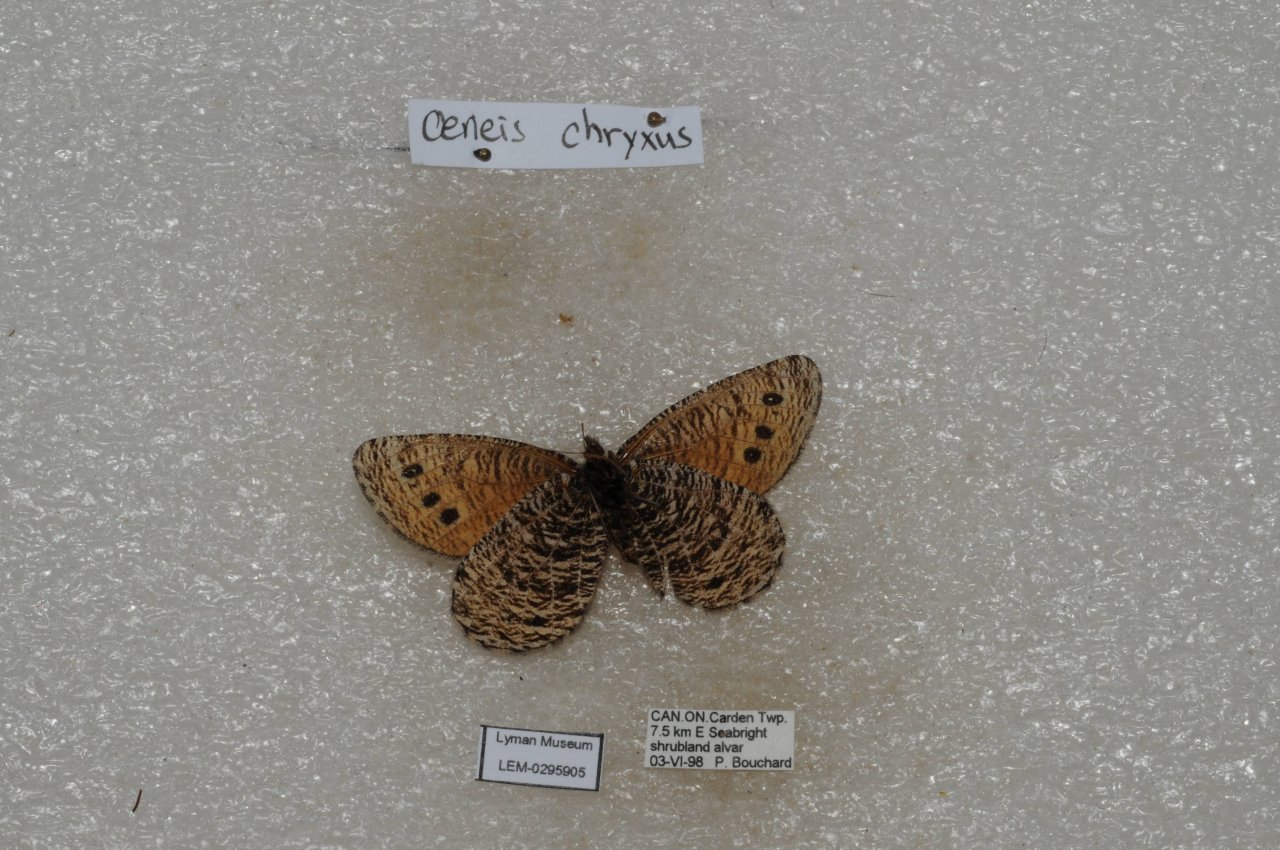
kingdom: Animalia
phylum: Arthropoda
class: Insecta
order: Lepidoptera
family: Nymphalidae
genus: Oeneis
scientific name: Oeneis chryxus
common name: Chryxus Arctic
